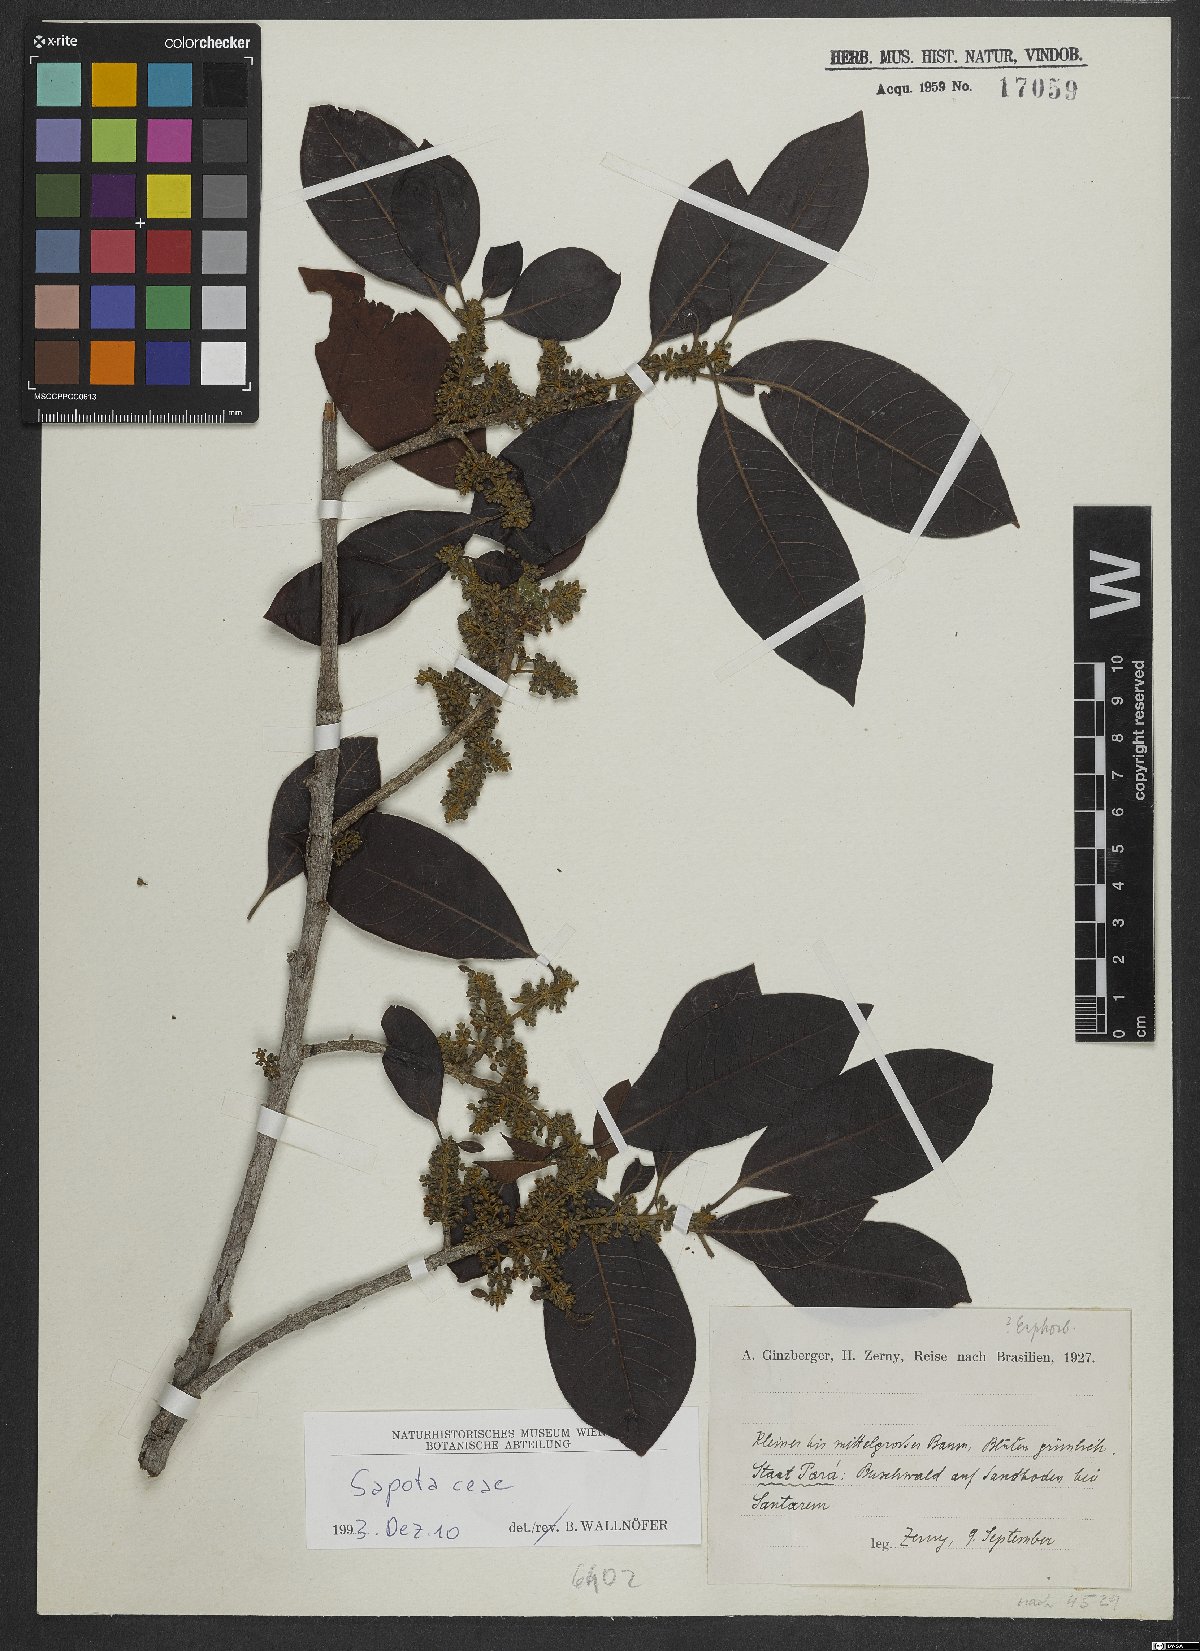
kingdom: Plantae
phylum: Tracheophyta
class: Magnoliopsida
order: Ericales
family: Sapotaceae
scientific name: Sapotaceae
